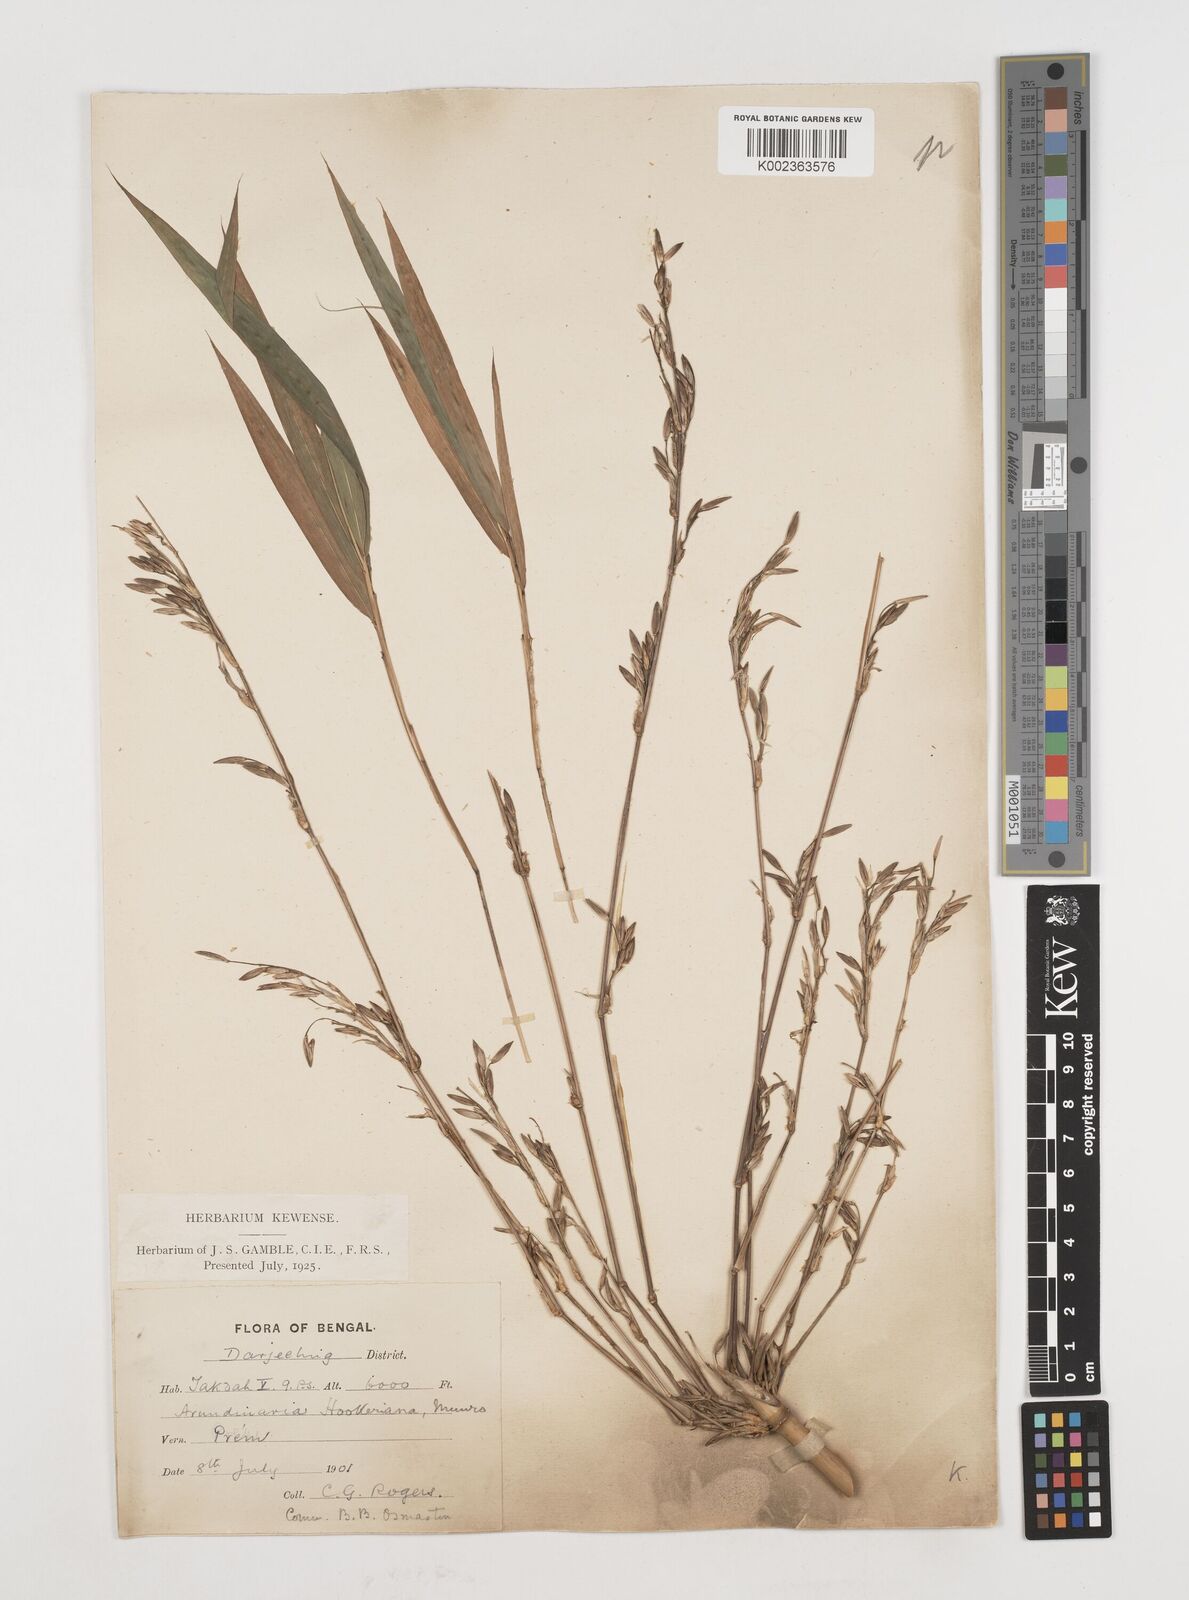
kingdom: Plantae
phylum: Tracheophyta
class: Liliopsida
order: Poales
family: Poaceae
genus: Himalayacalamus
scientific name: Himalayacalamus hookerianus
